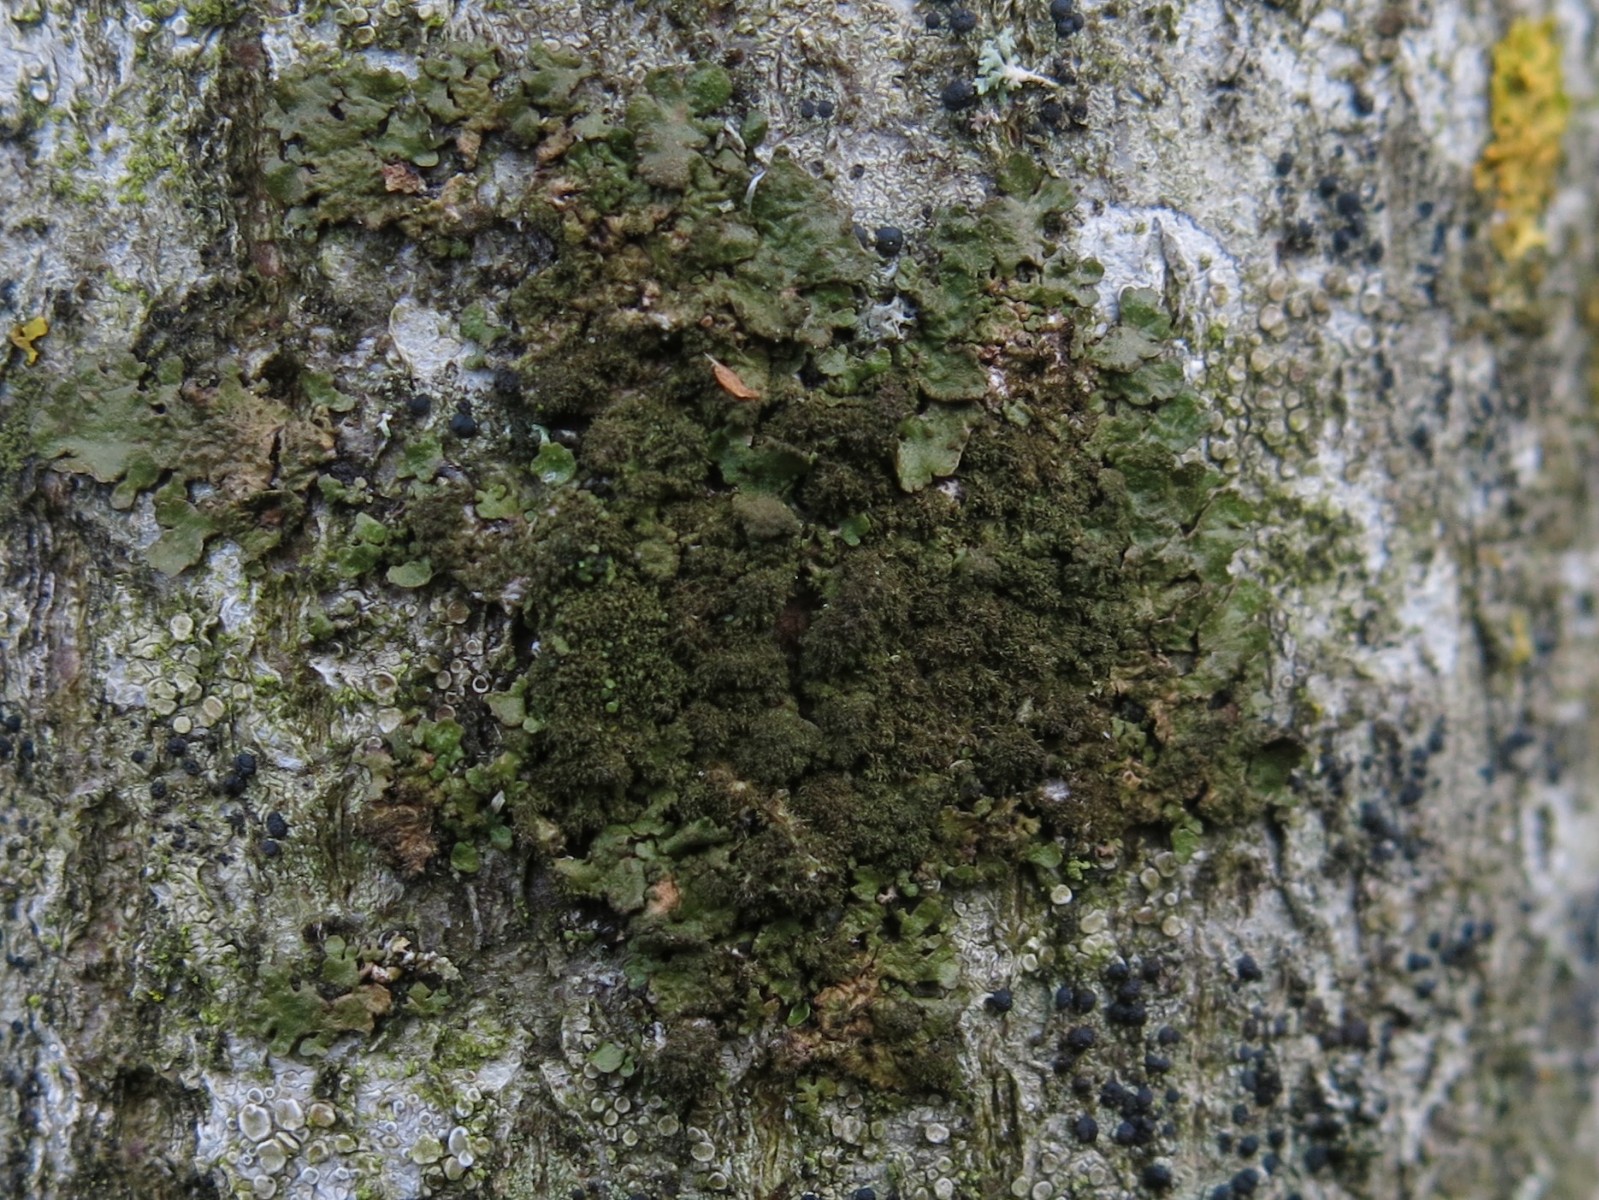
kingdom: Fungi
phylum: Ascomycota
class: Lecanoromycetes
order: Lecanorales
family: Parmeliaceae
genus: Melanelixia
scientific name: Melanelixia glabratula
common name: glinsende skållav
